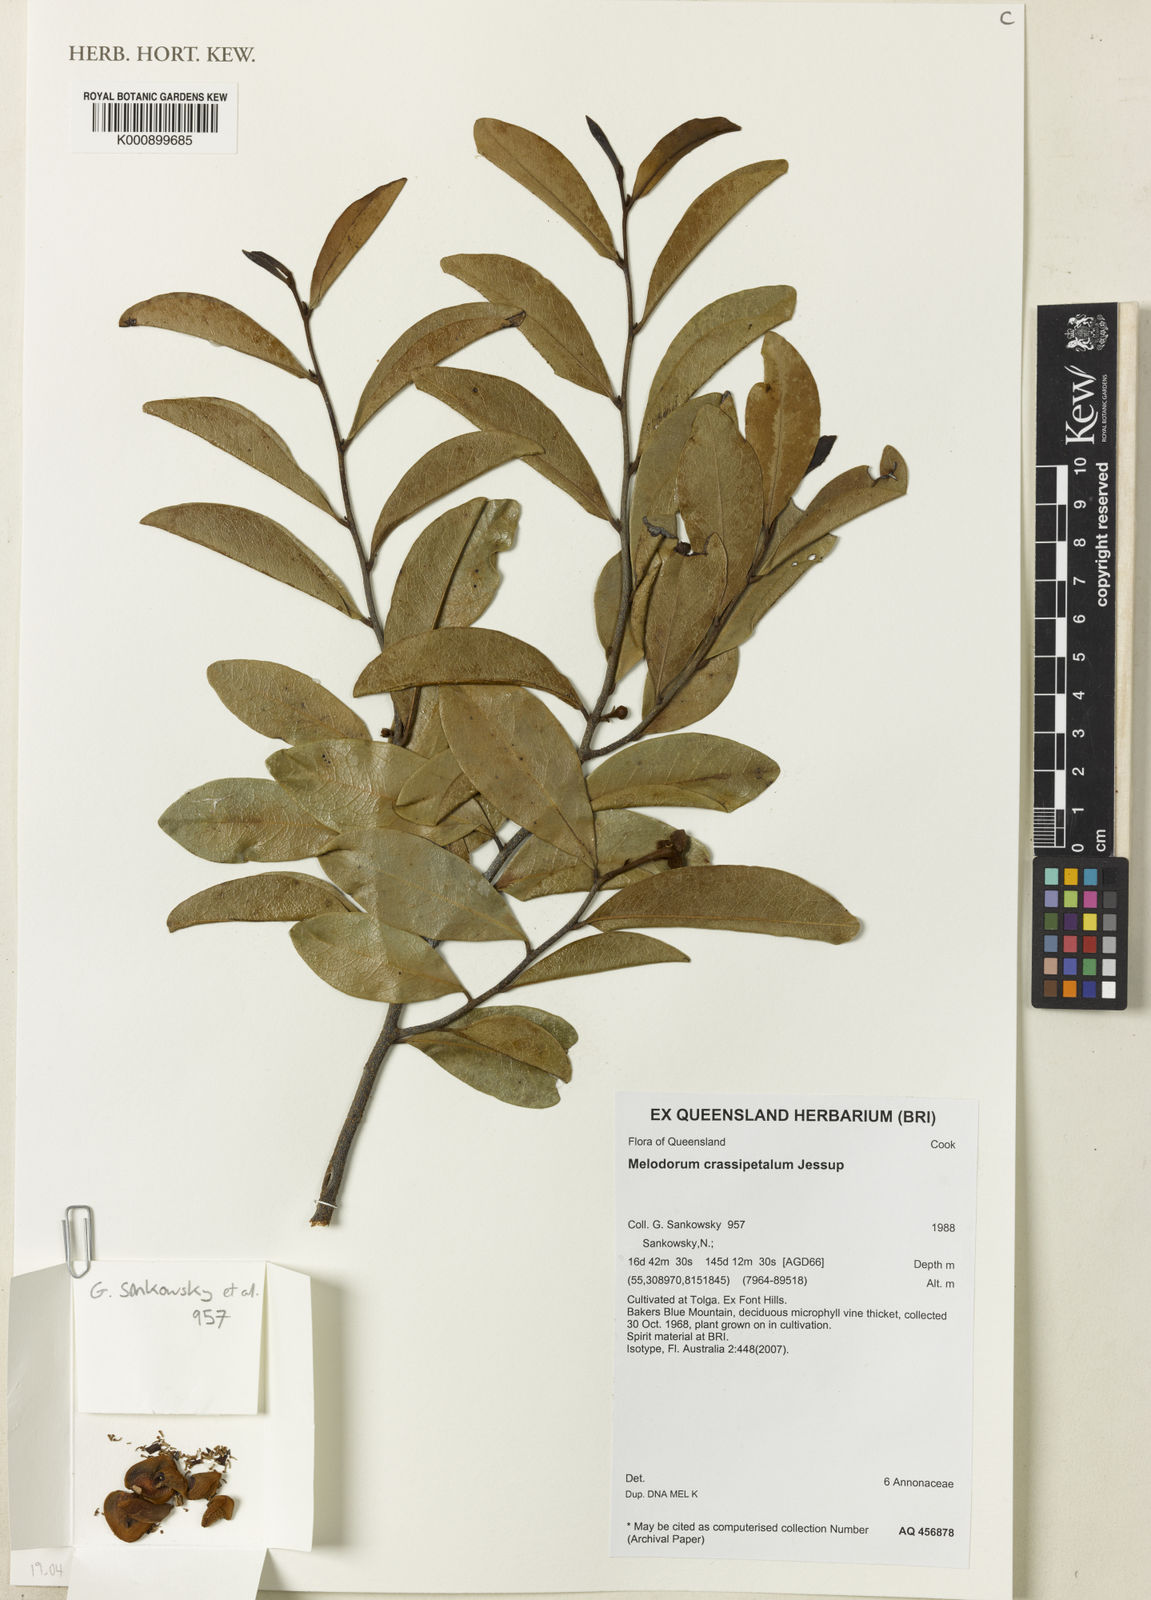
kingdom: Plantae
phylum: Tracheophyta
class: Magnoliopsida
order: Magnoliales
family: Annonaceae
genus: Uvaria
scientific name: Uvaria sankowskyi
